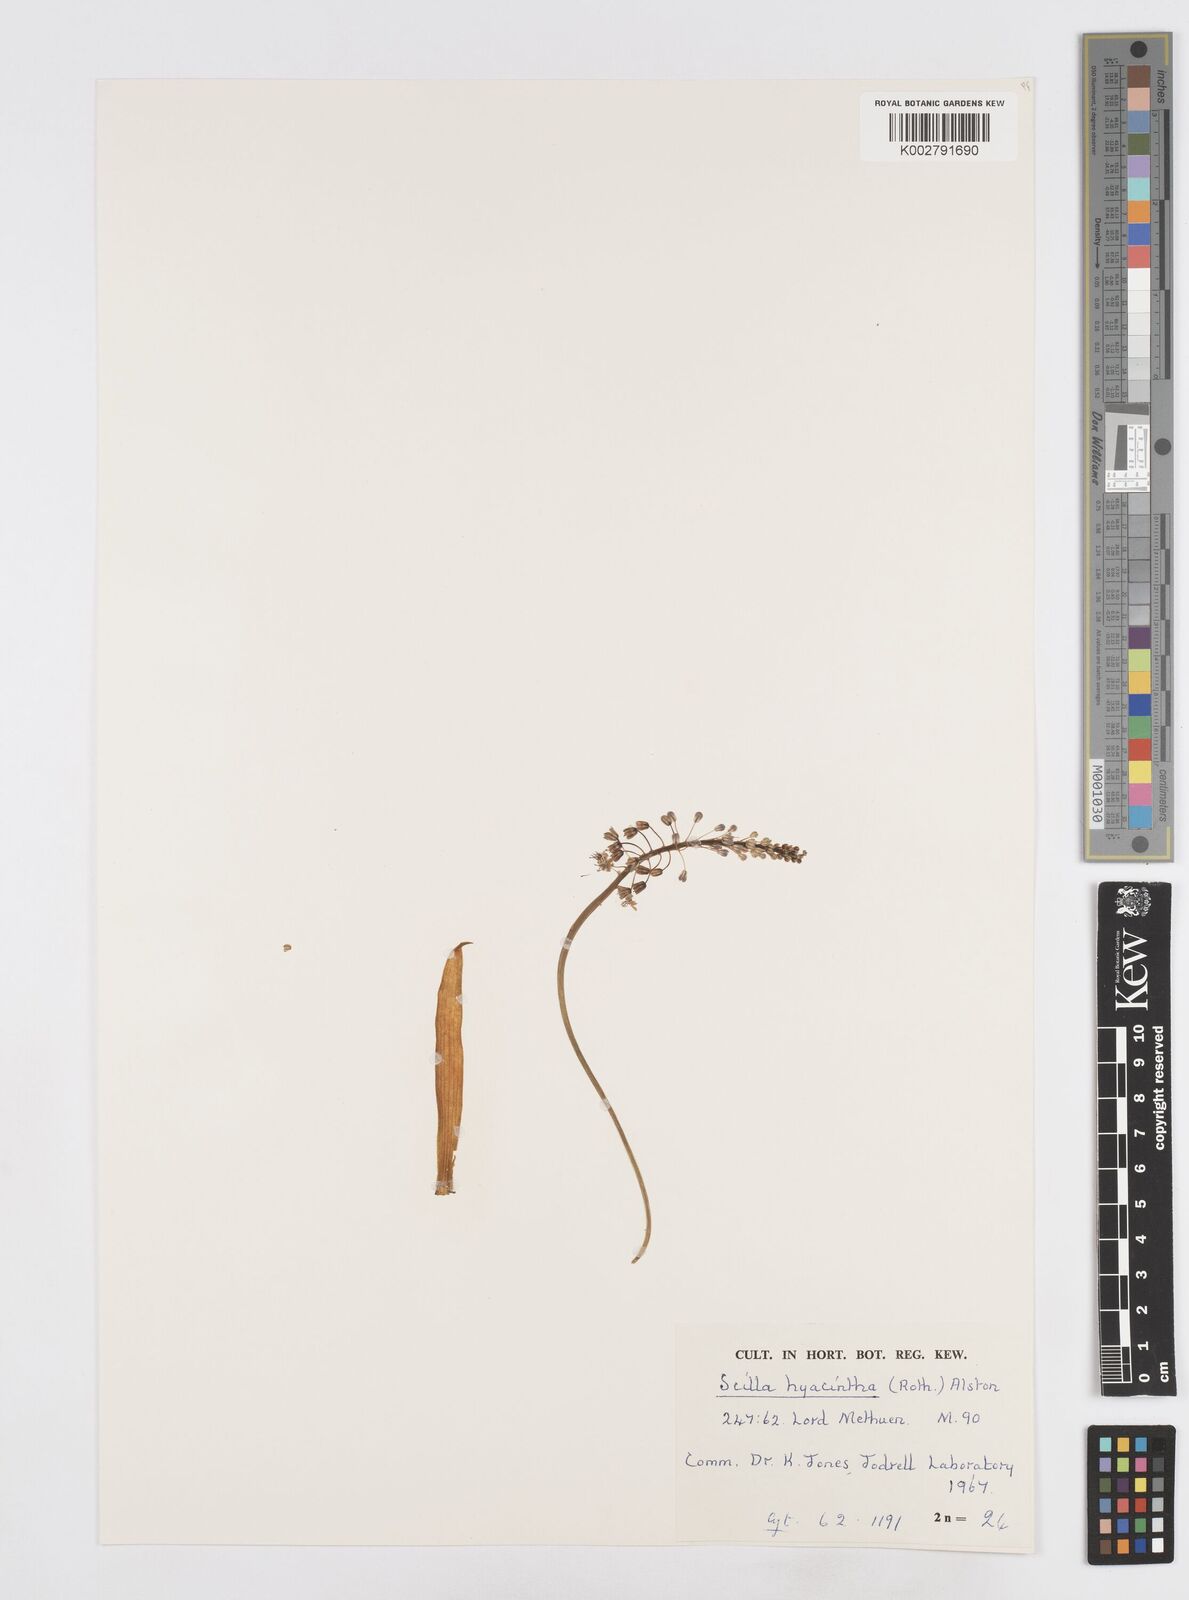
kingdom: Plantae
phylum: Tracheophyta
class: Liliopsida
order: Asparagales
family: Asparagaceae
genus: Ledebouria
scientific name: Ledebouria revoluta
